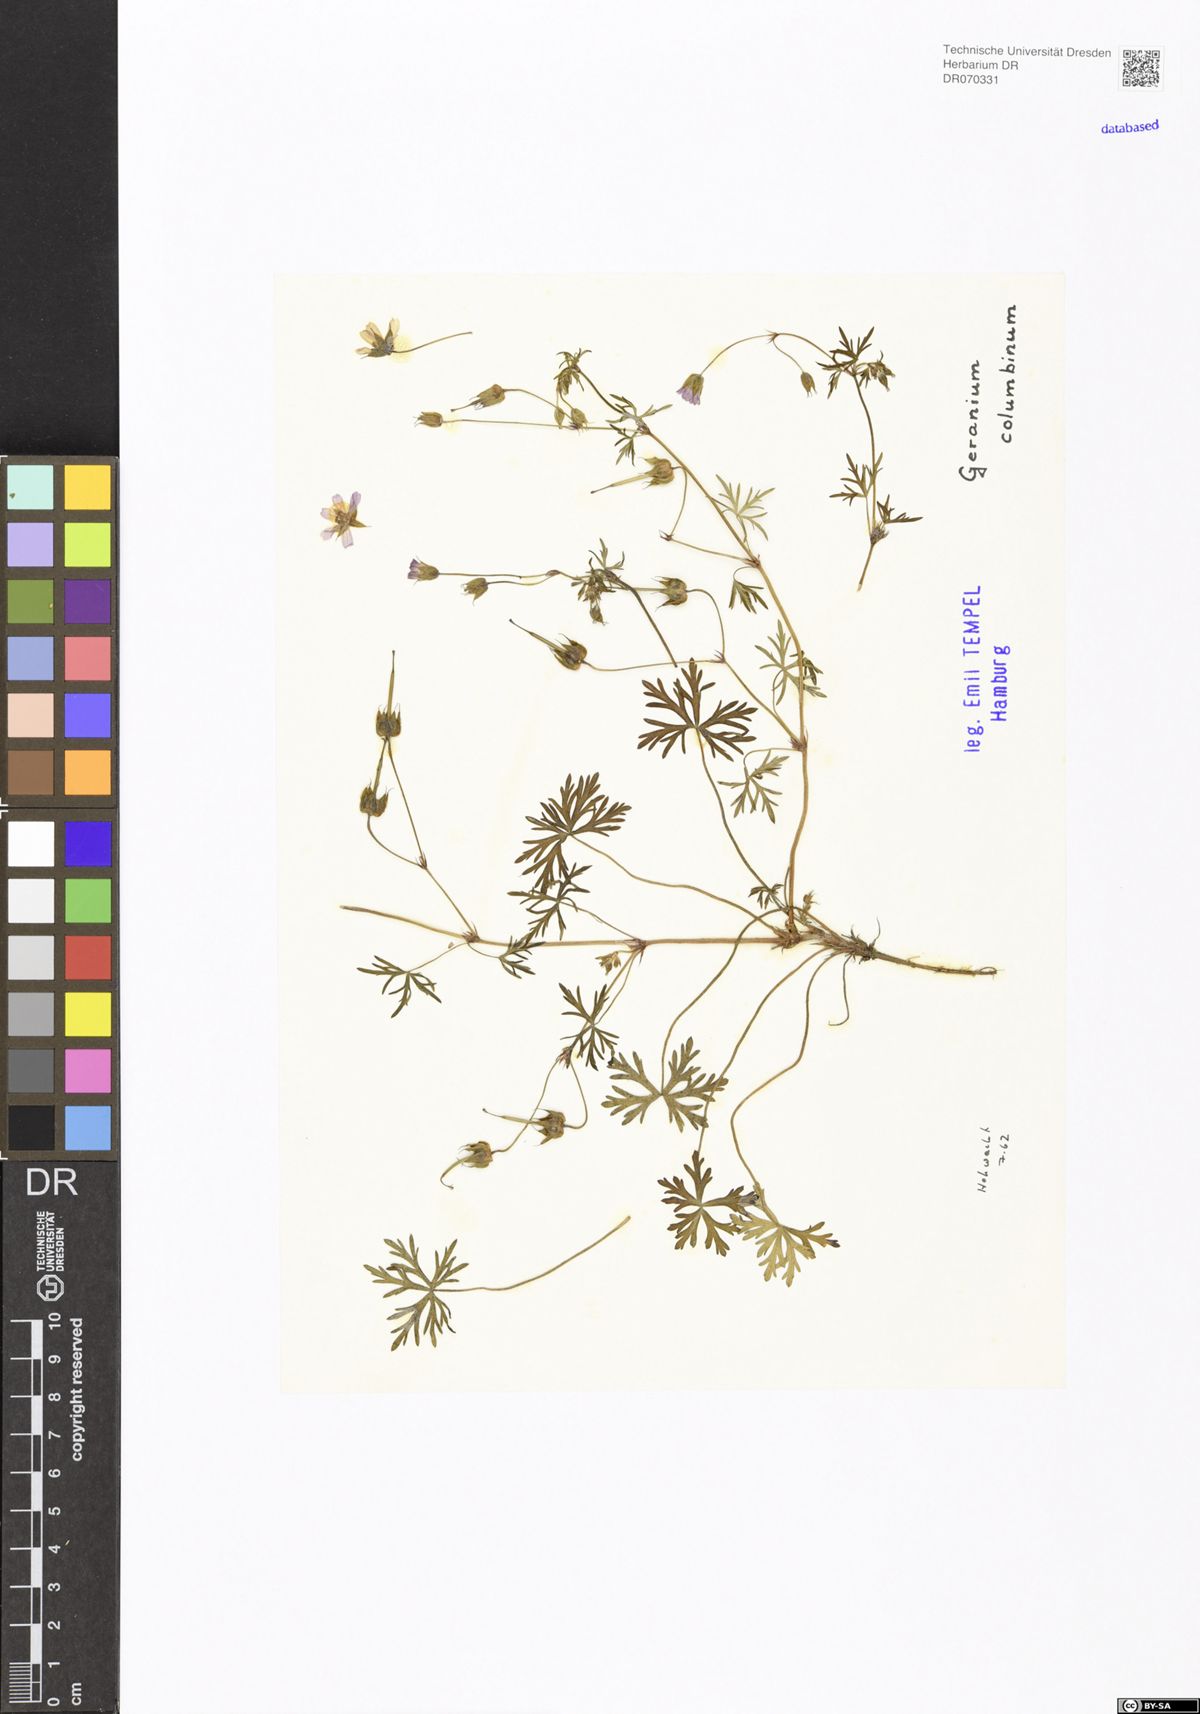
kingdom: Plantae
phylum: Tracheophyta
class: Magnoliopsida
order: Geraniales
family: Geraniaceae
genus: Geranium
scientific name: Geranium columbinum
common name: Long-stalked crane's-bill
